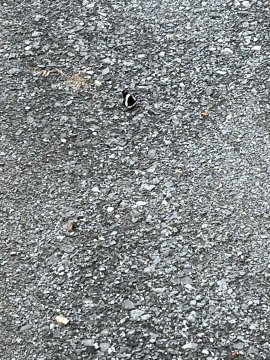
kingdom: Animalia
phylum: Arthropoda
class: Insecta
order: Lepidoptera
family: Nymphalidae
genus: Limenitis
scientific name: Limenitis
